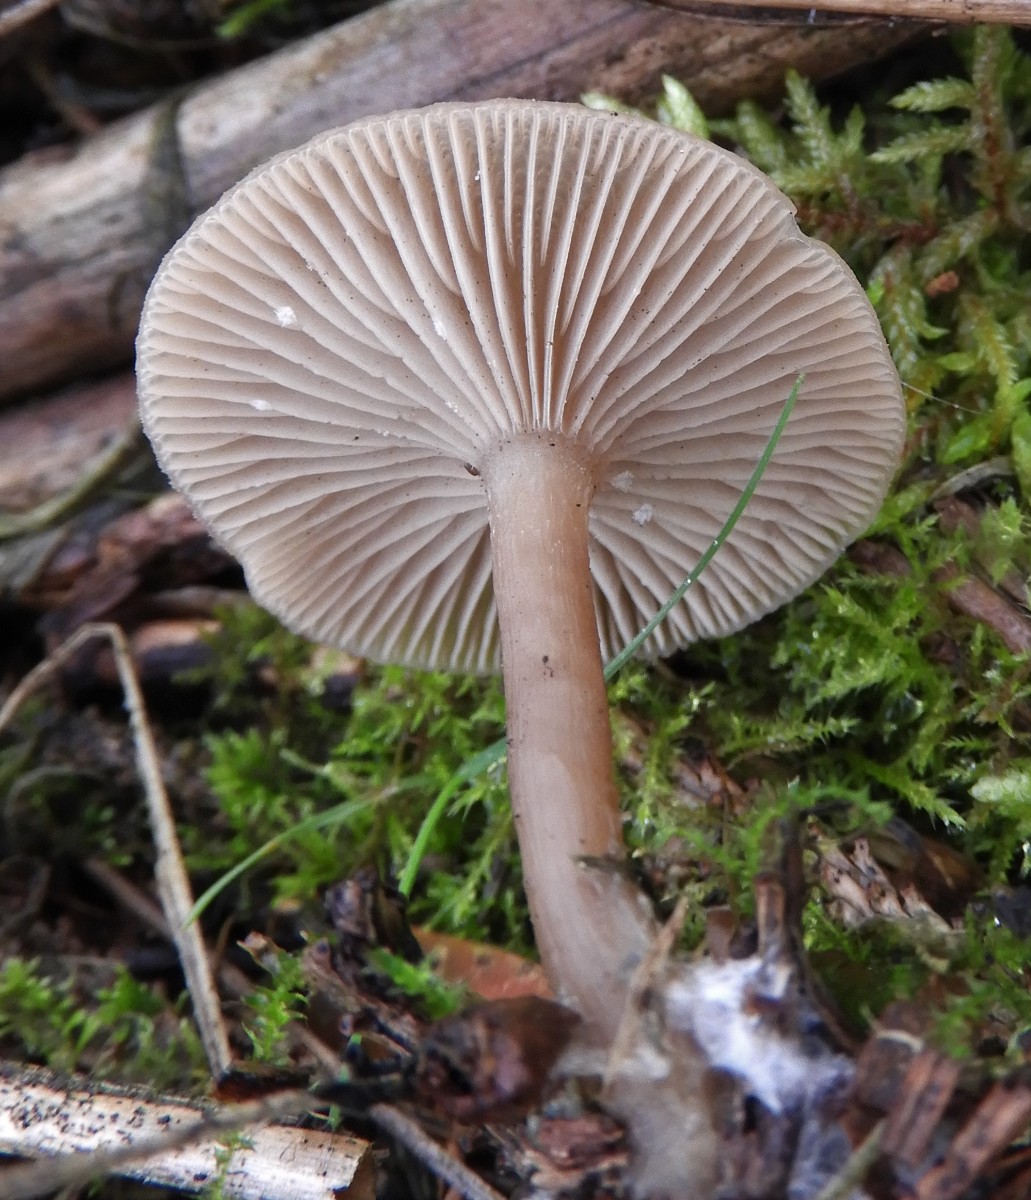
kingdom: Fungi
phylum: Basidiomycota
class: Agaricomycetes
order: Agaricales
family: Tricholomataceae
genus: Clitocybe
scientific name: Clitocybe vibecina
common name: randstribet tragthat
